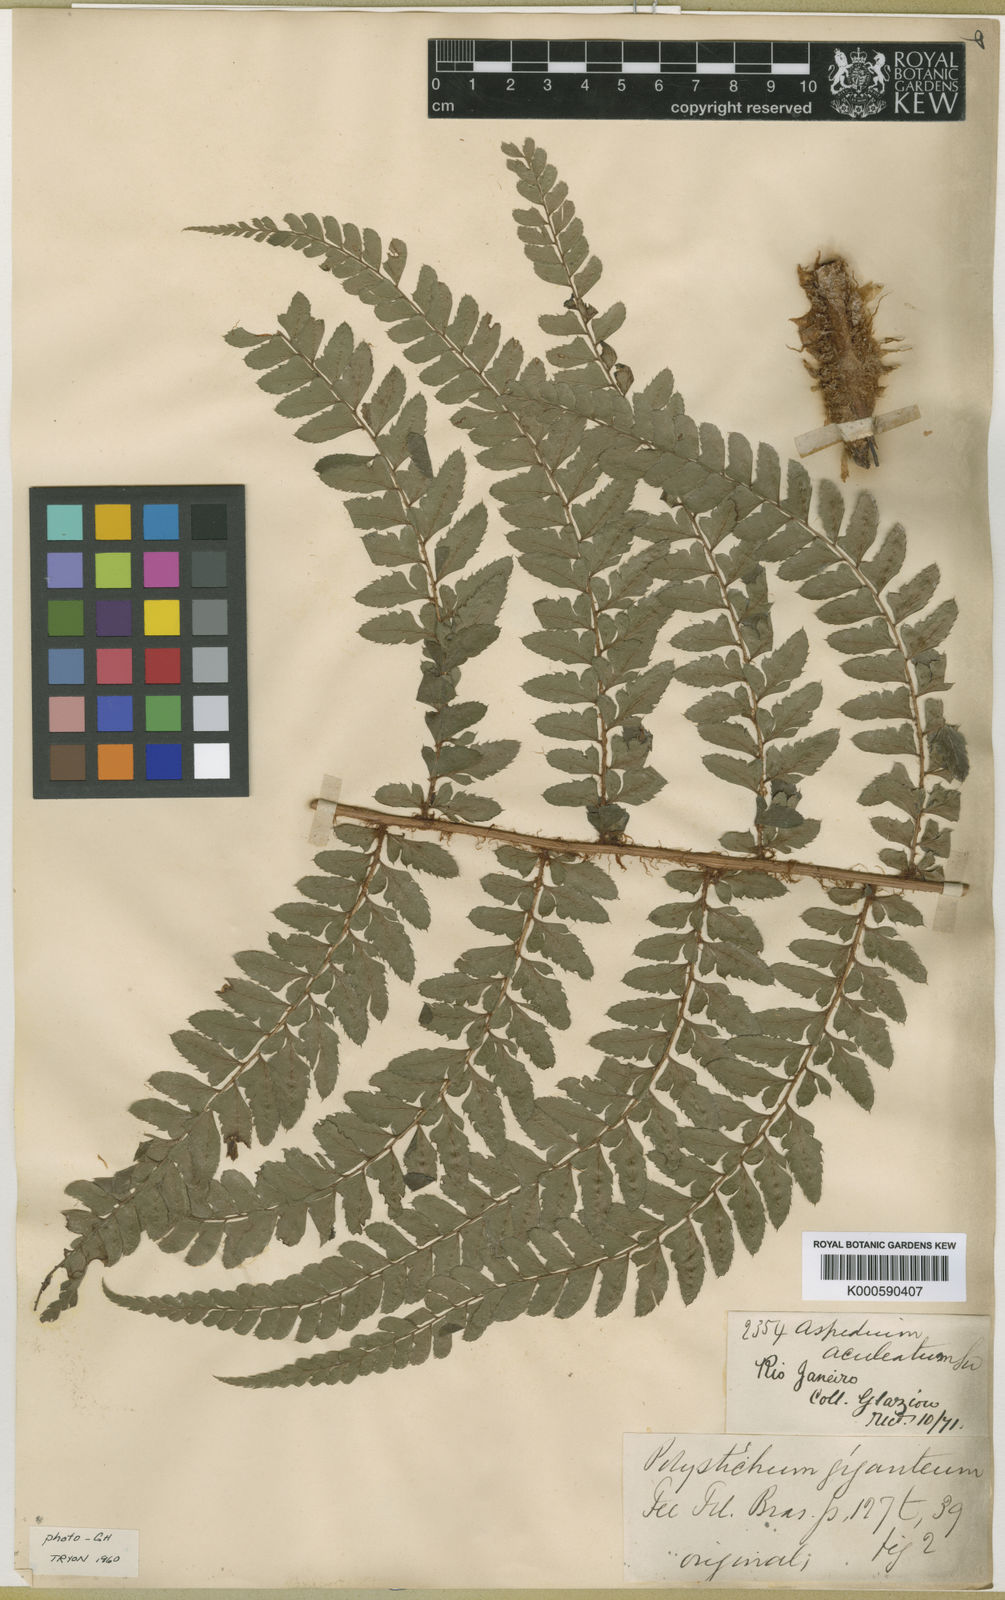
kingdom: Plantae
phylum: Tracheophyta
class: Polypodiopsida
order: Polypodiales
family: Dryopteridaceae
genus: Polystichum
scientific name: Polystichum
